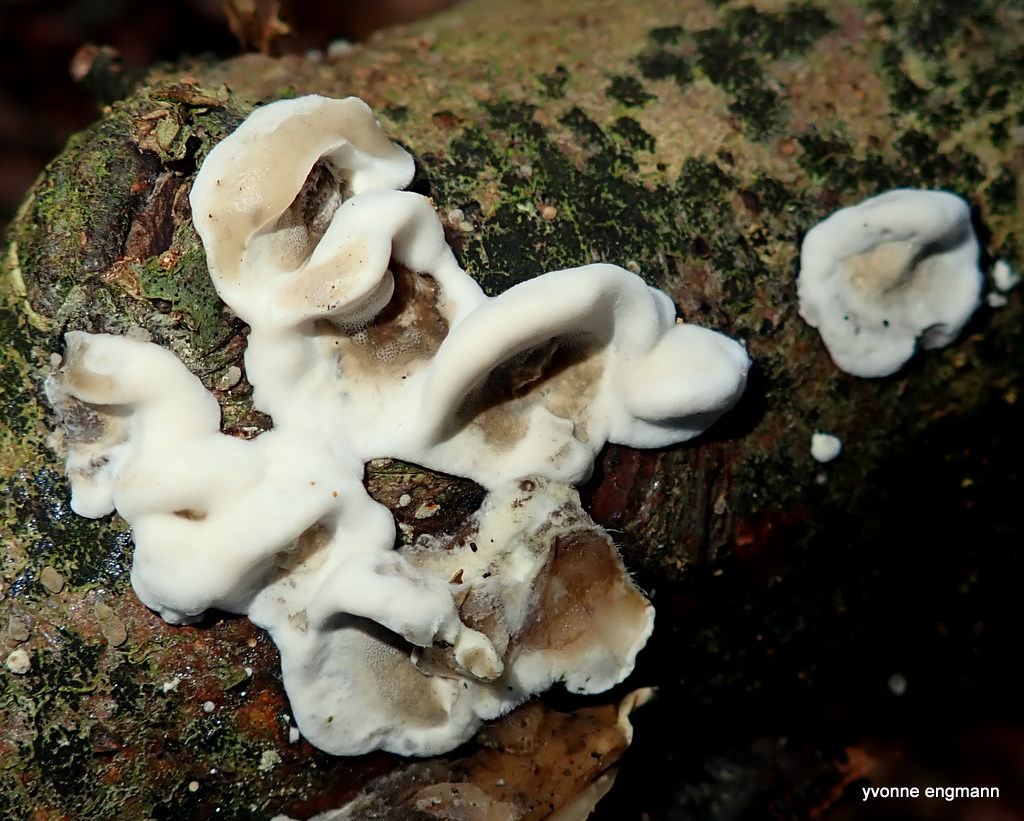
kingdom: Fungi
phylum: Basidiomycota
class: Agaricomycetes
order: Polyporales
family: Phanerochaetaceae
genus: Bjerkandera
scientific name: Bjerkandera adusta
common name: sveden sodporesvamp
